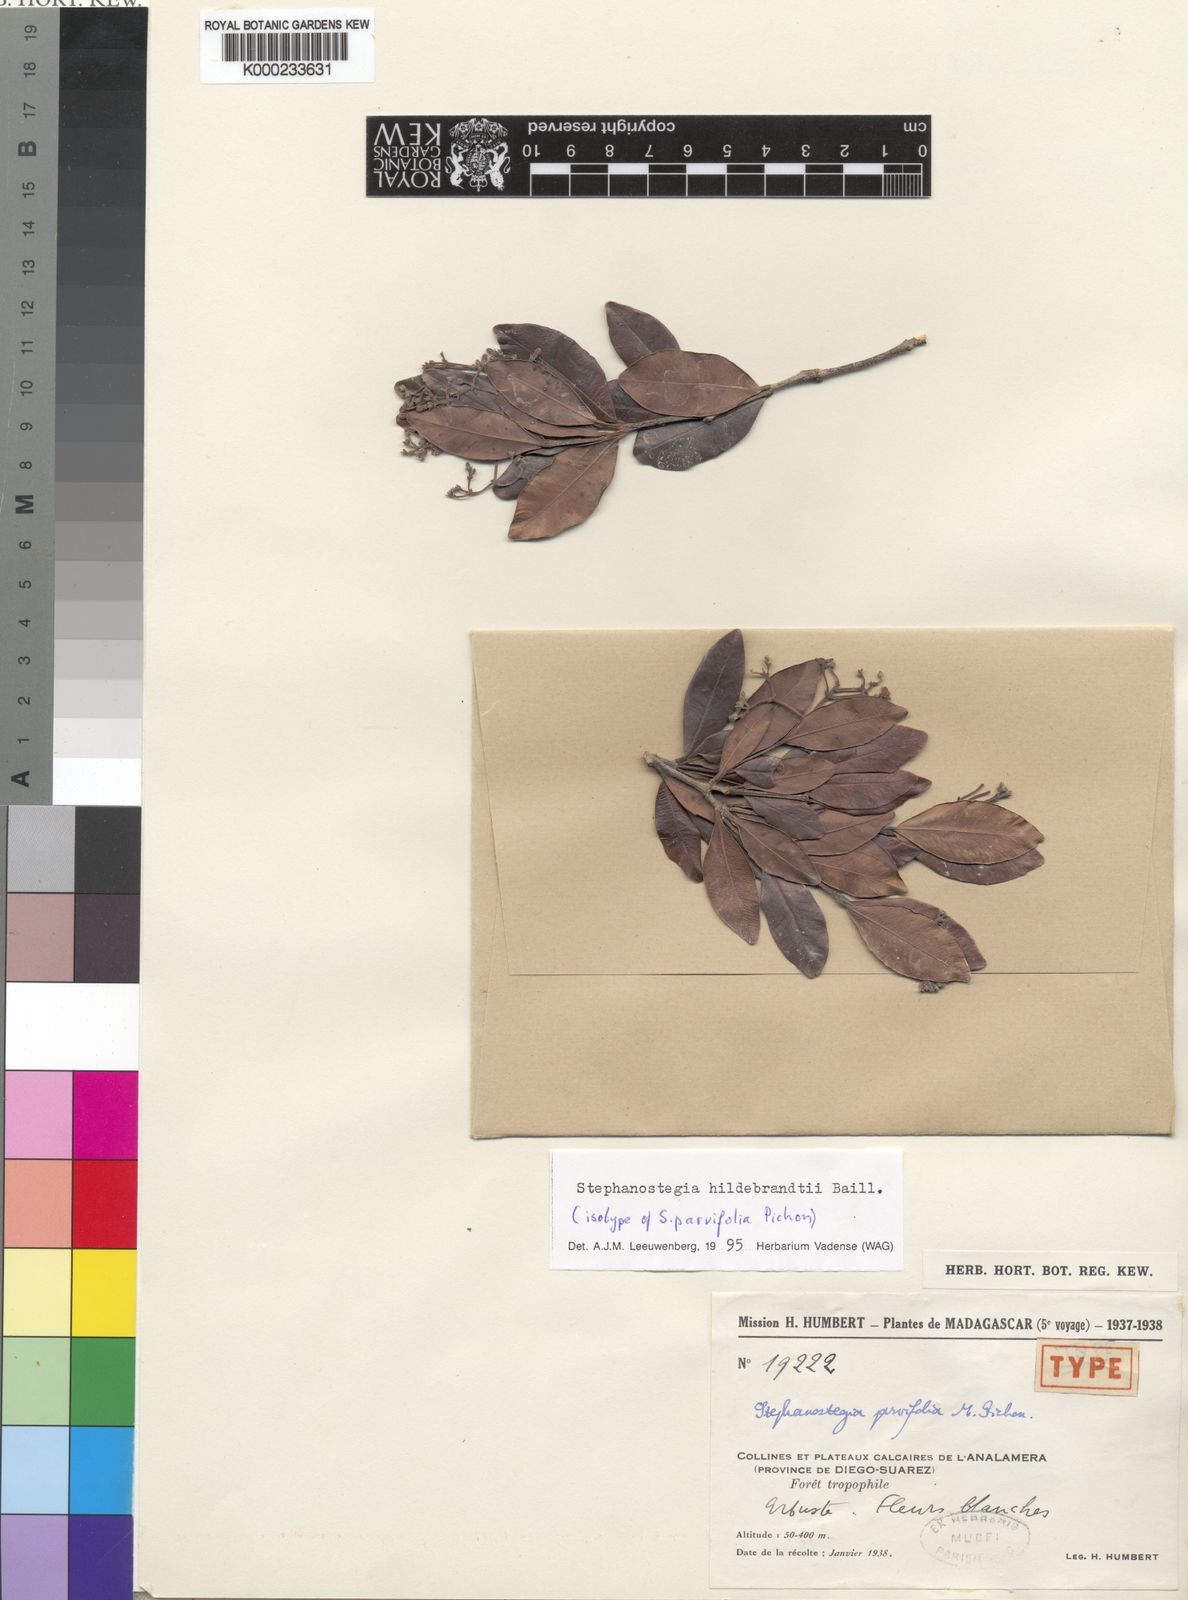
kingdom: Plantae
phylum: Tracheophyta
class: Magnoliopsida
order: Gentianales
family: Apocynaceae
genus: Stephanostegia
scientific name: Stephanostegia hildebrandtii
